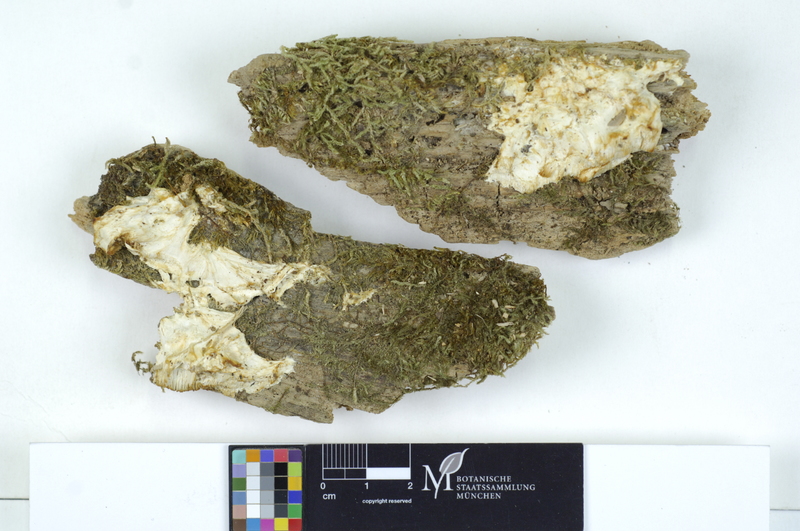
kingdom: Fungi
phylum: Basidiomycota
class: Tremellomycetes
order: Filobasidiales
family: Filobasidiaceae
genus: Carcinomyces
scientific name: Carcinomyces polyporinus
